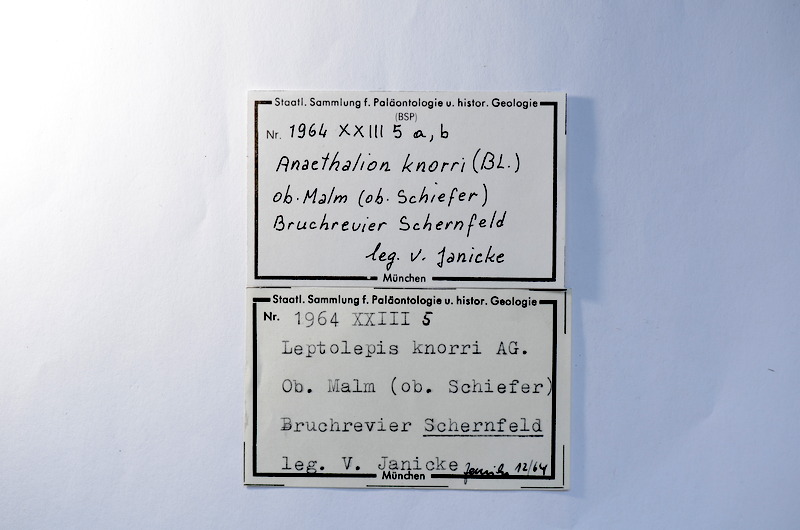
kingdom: Animalia
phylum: Chordata
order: Elopiformes
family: Anaethalionidae
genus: Anaethalion
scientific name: Anaethalion knorri
